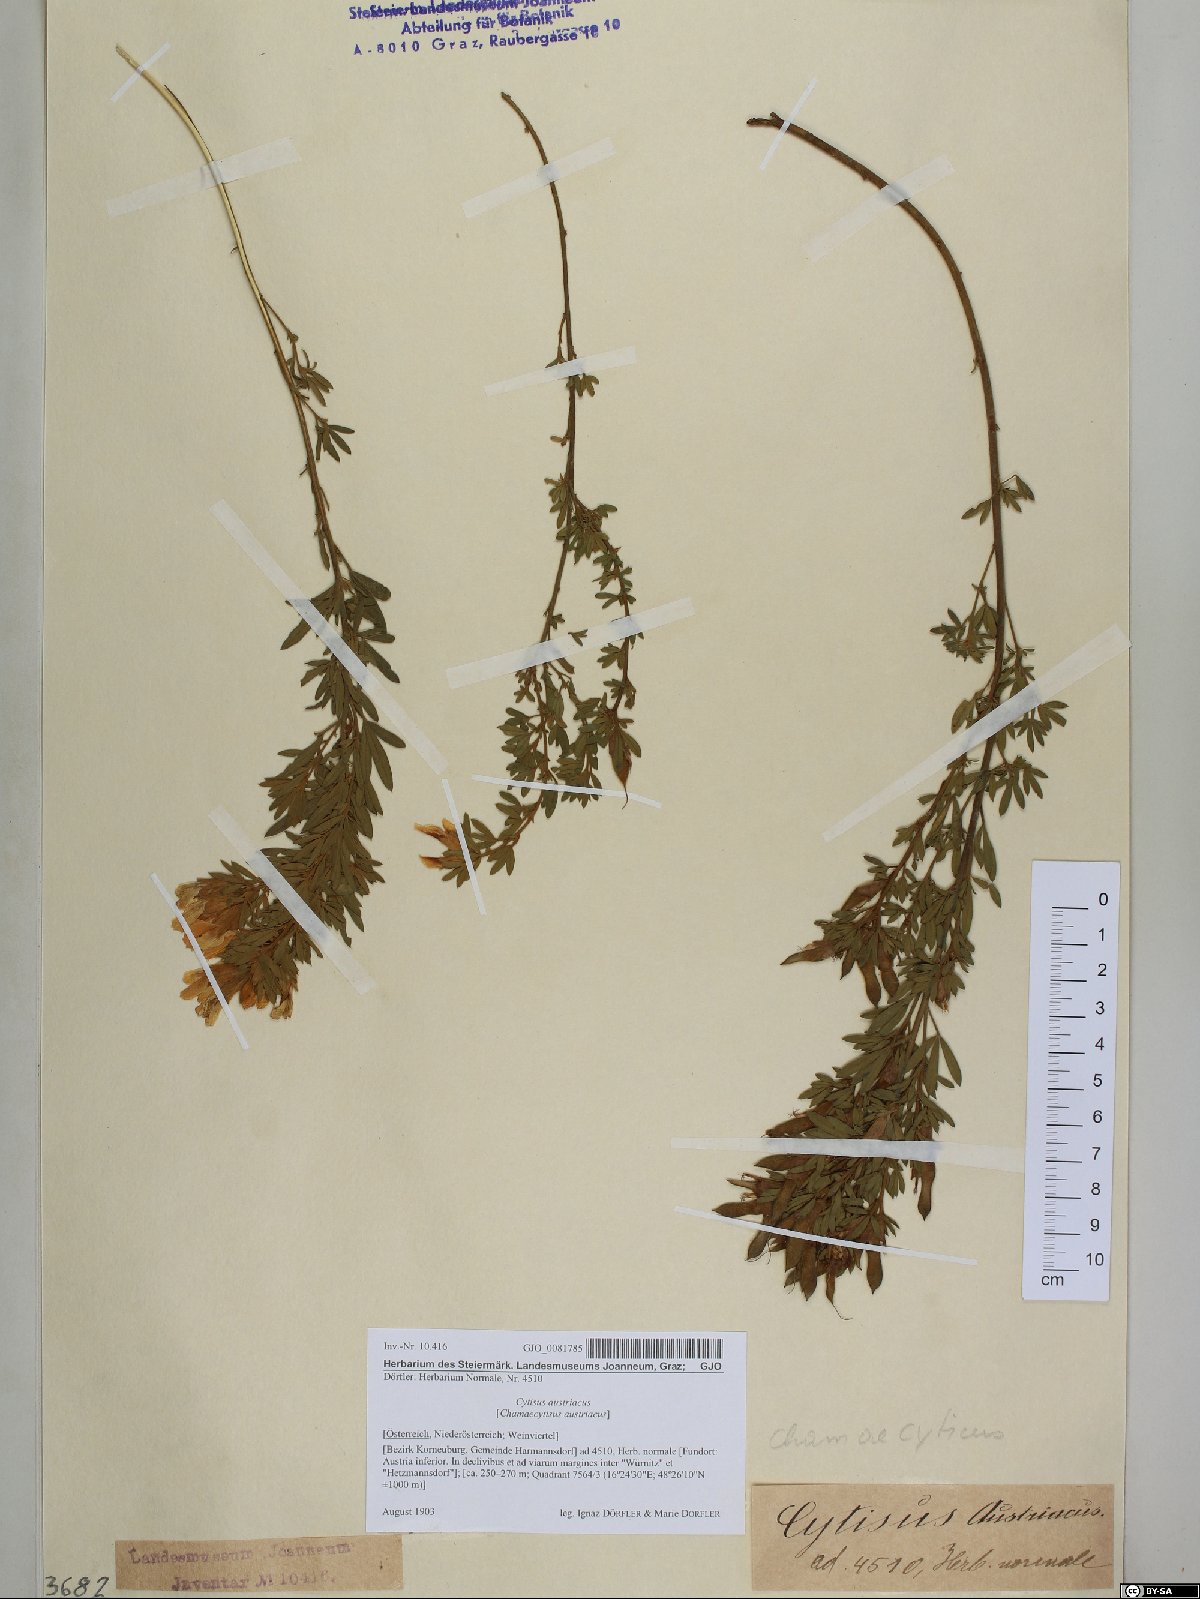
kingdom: Plantae
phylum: Tracheophyta
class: Magnoliopsida
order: Fabales
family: Fabaceae
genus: Chamaecytisus
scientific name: Chamaecytisus austriacus
